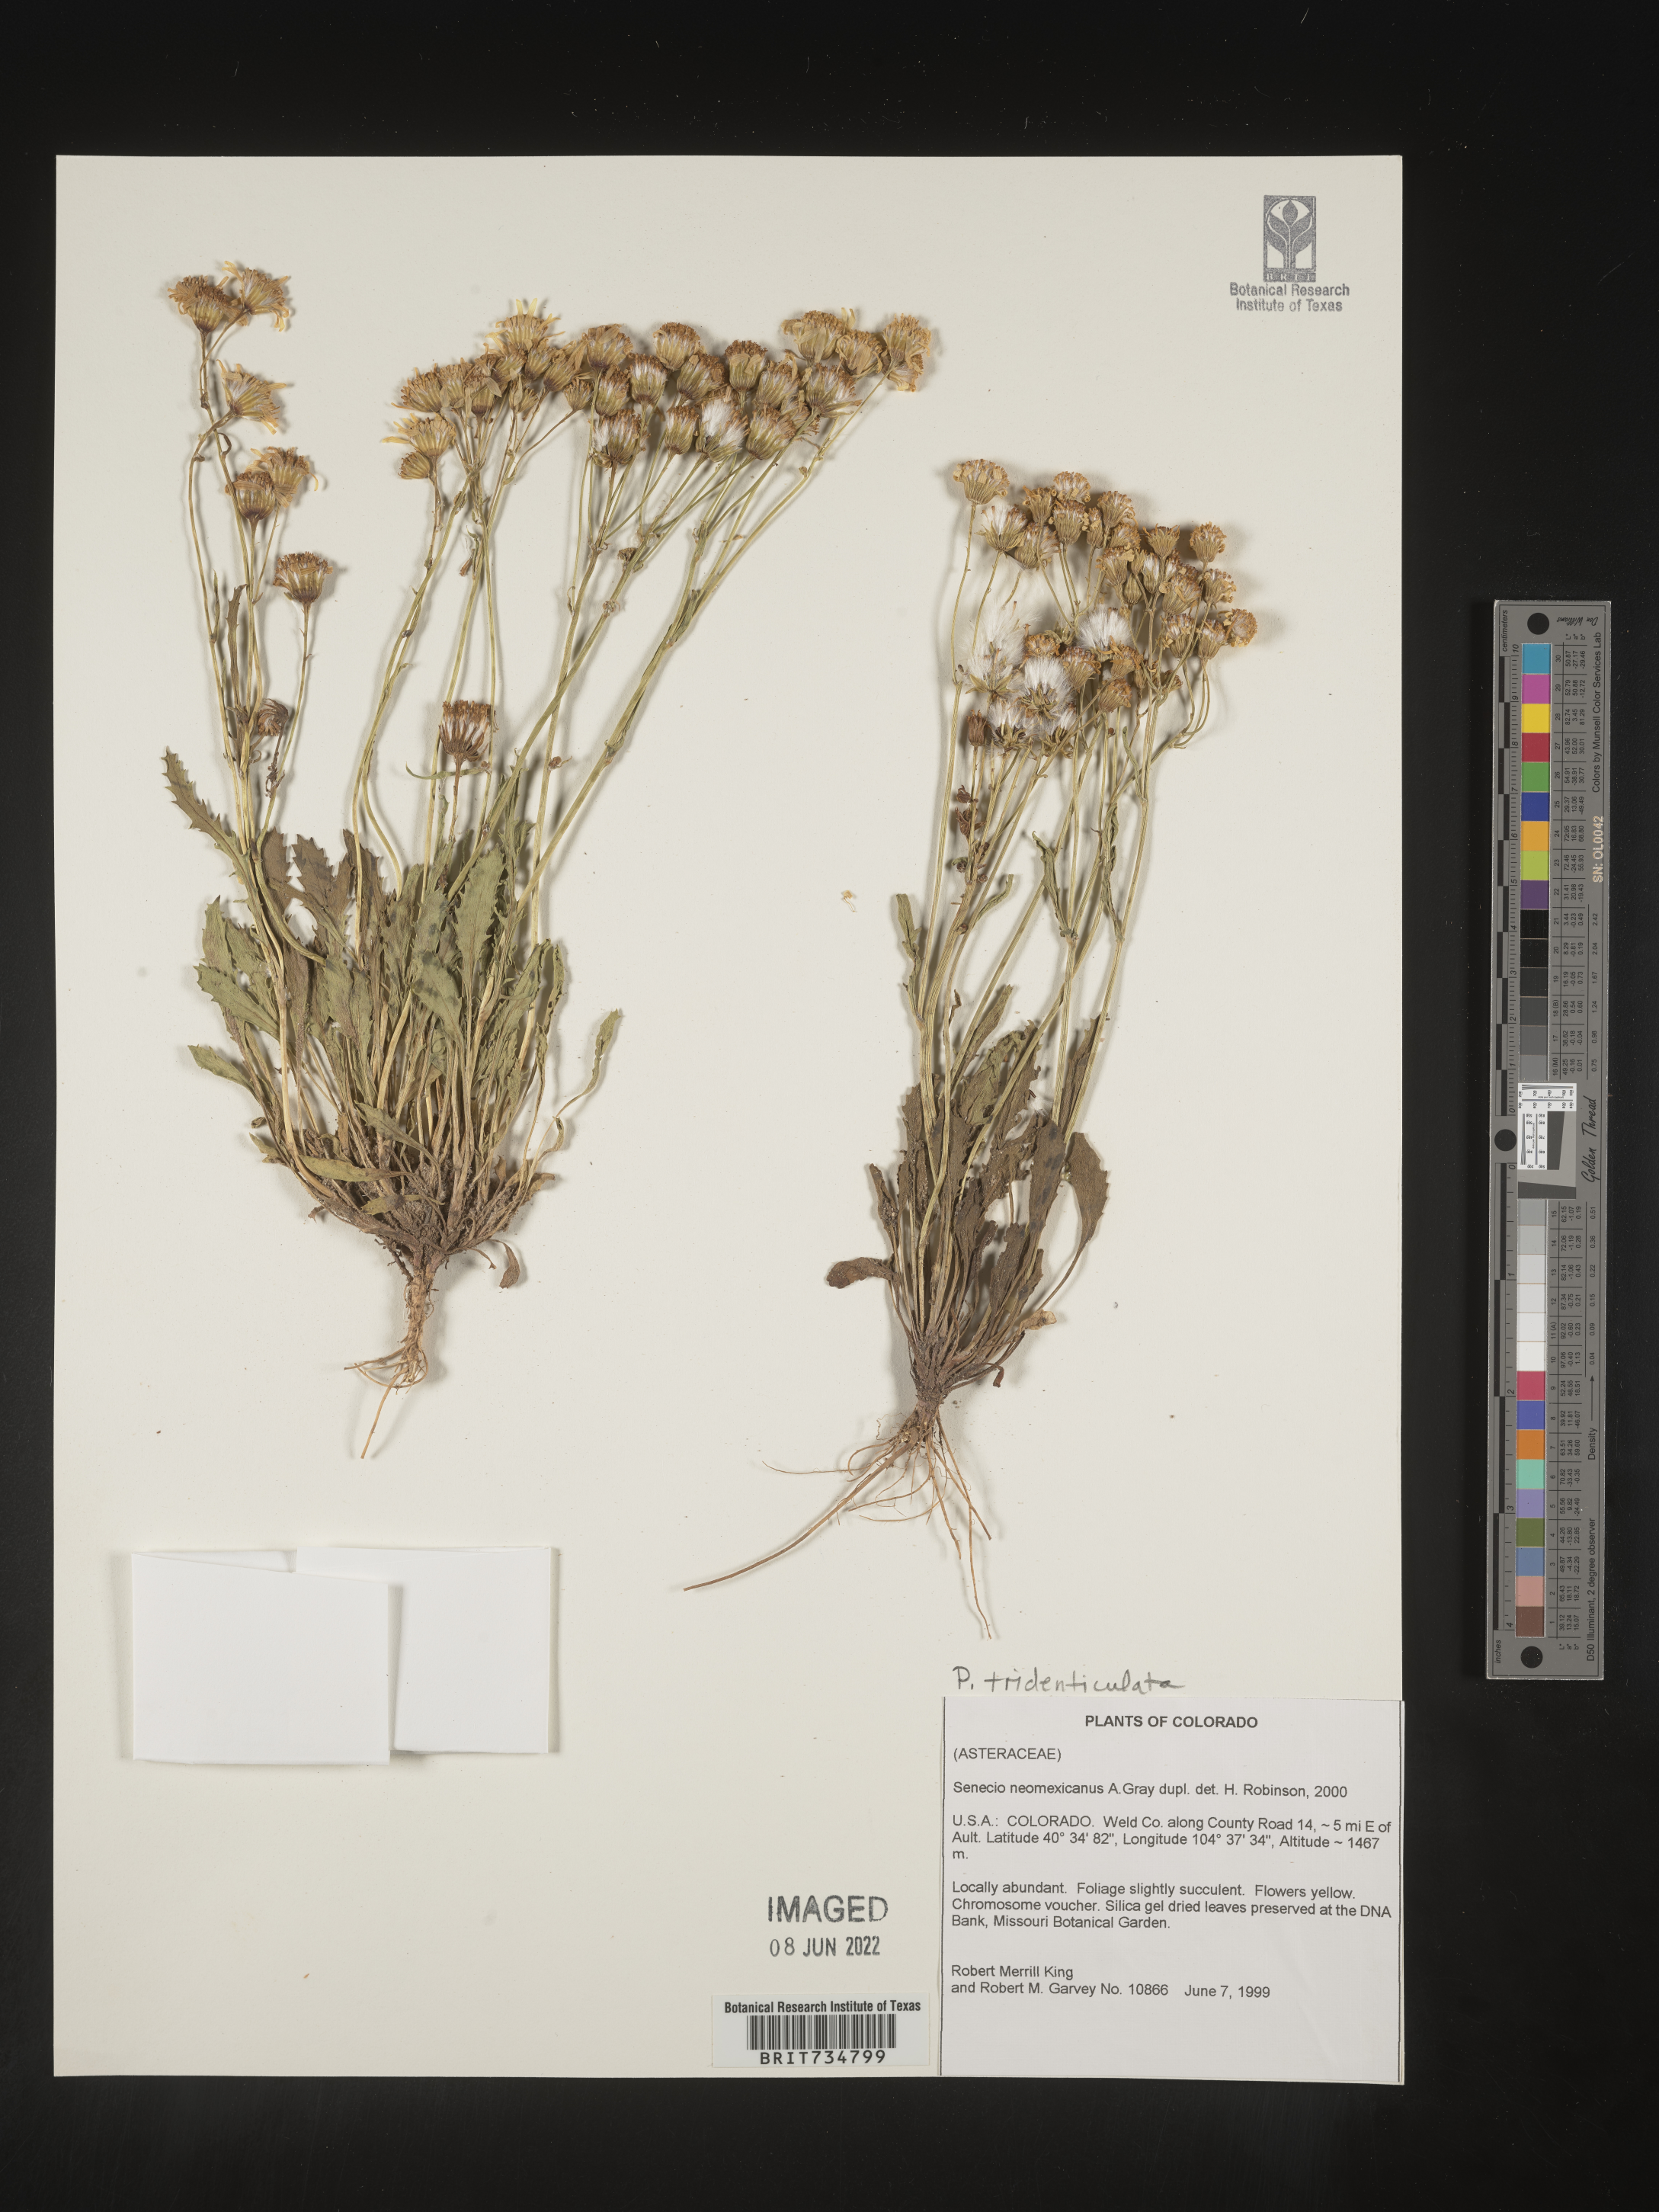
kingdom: Plantae
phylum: Tracheophyta
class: Magnoliopsida
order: Asterales
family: Asteraceae
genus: Packera
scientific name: Packera thurberi
